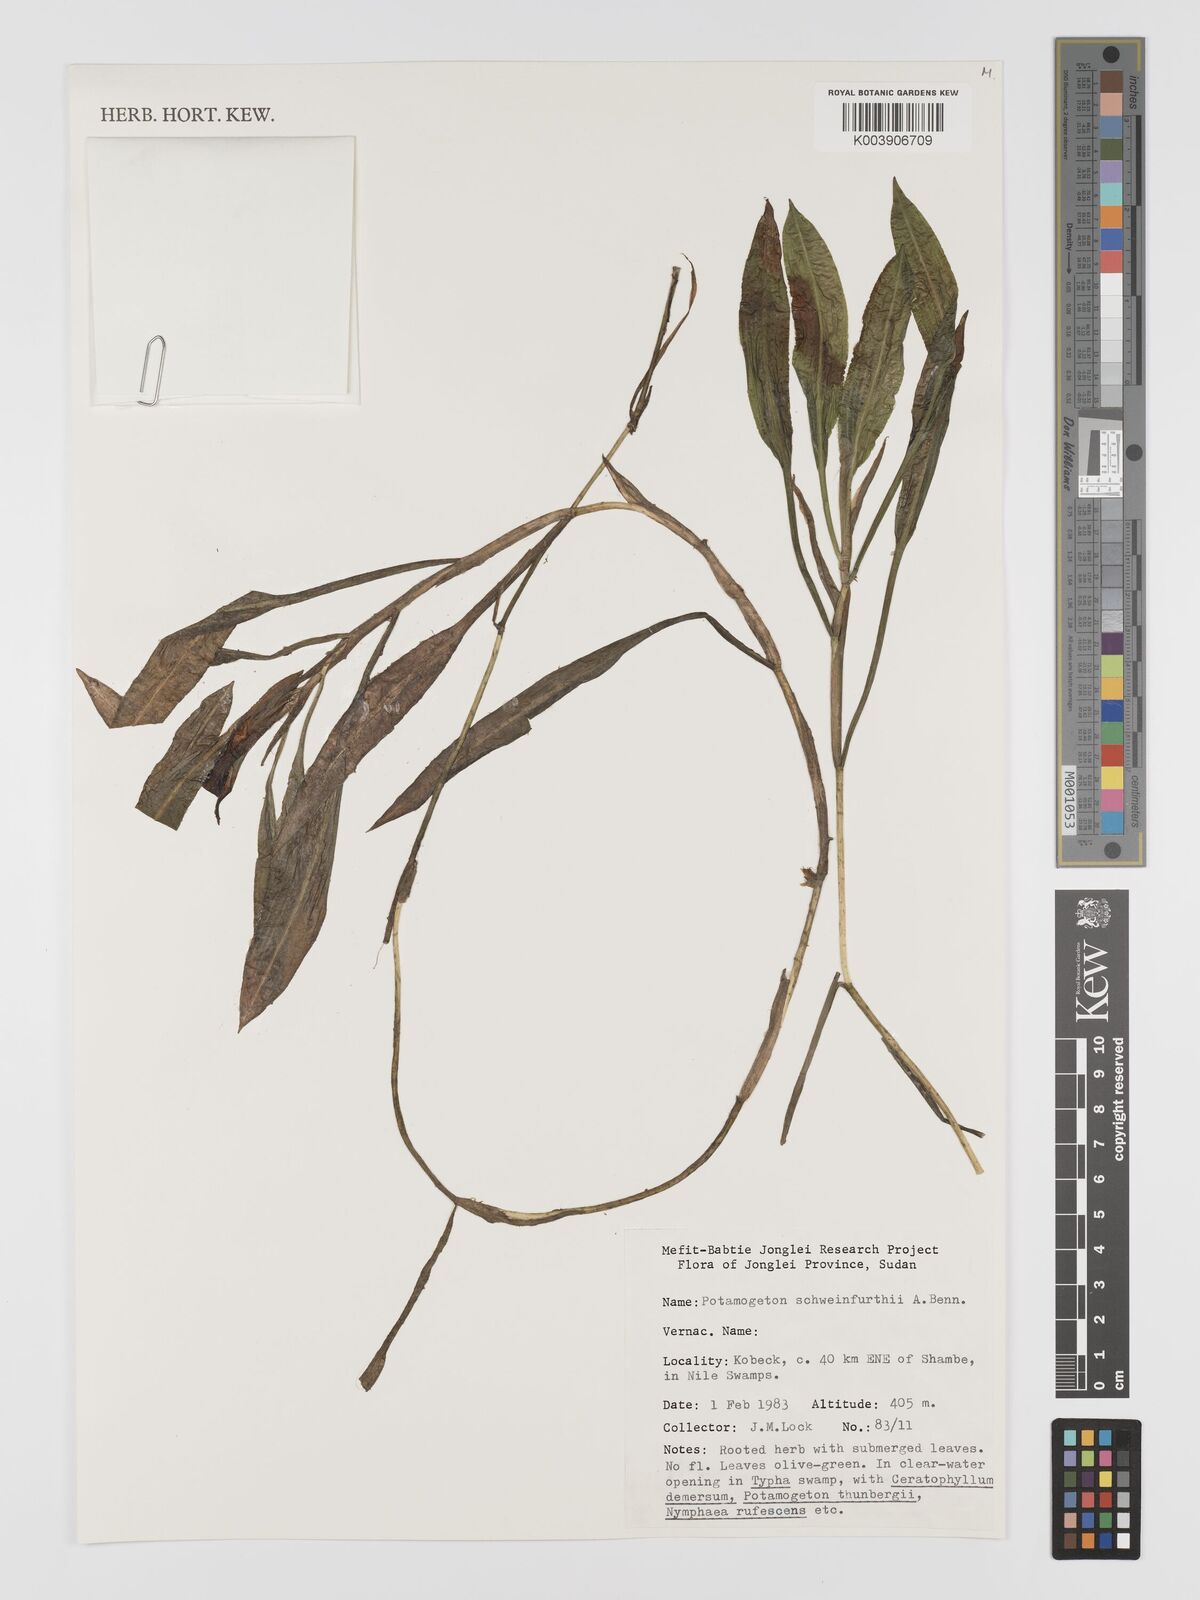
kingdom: Plantae
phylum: Tracheophyta
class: Liliopsida
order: Alismatales
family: Potamogetonaceae
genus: Potamogeton
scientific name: Potamogeton schweinfurthii
